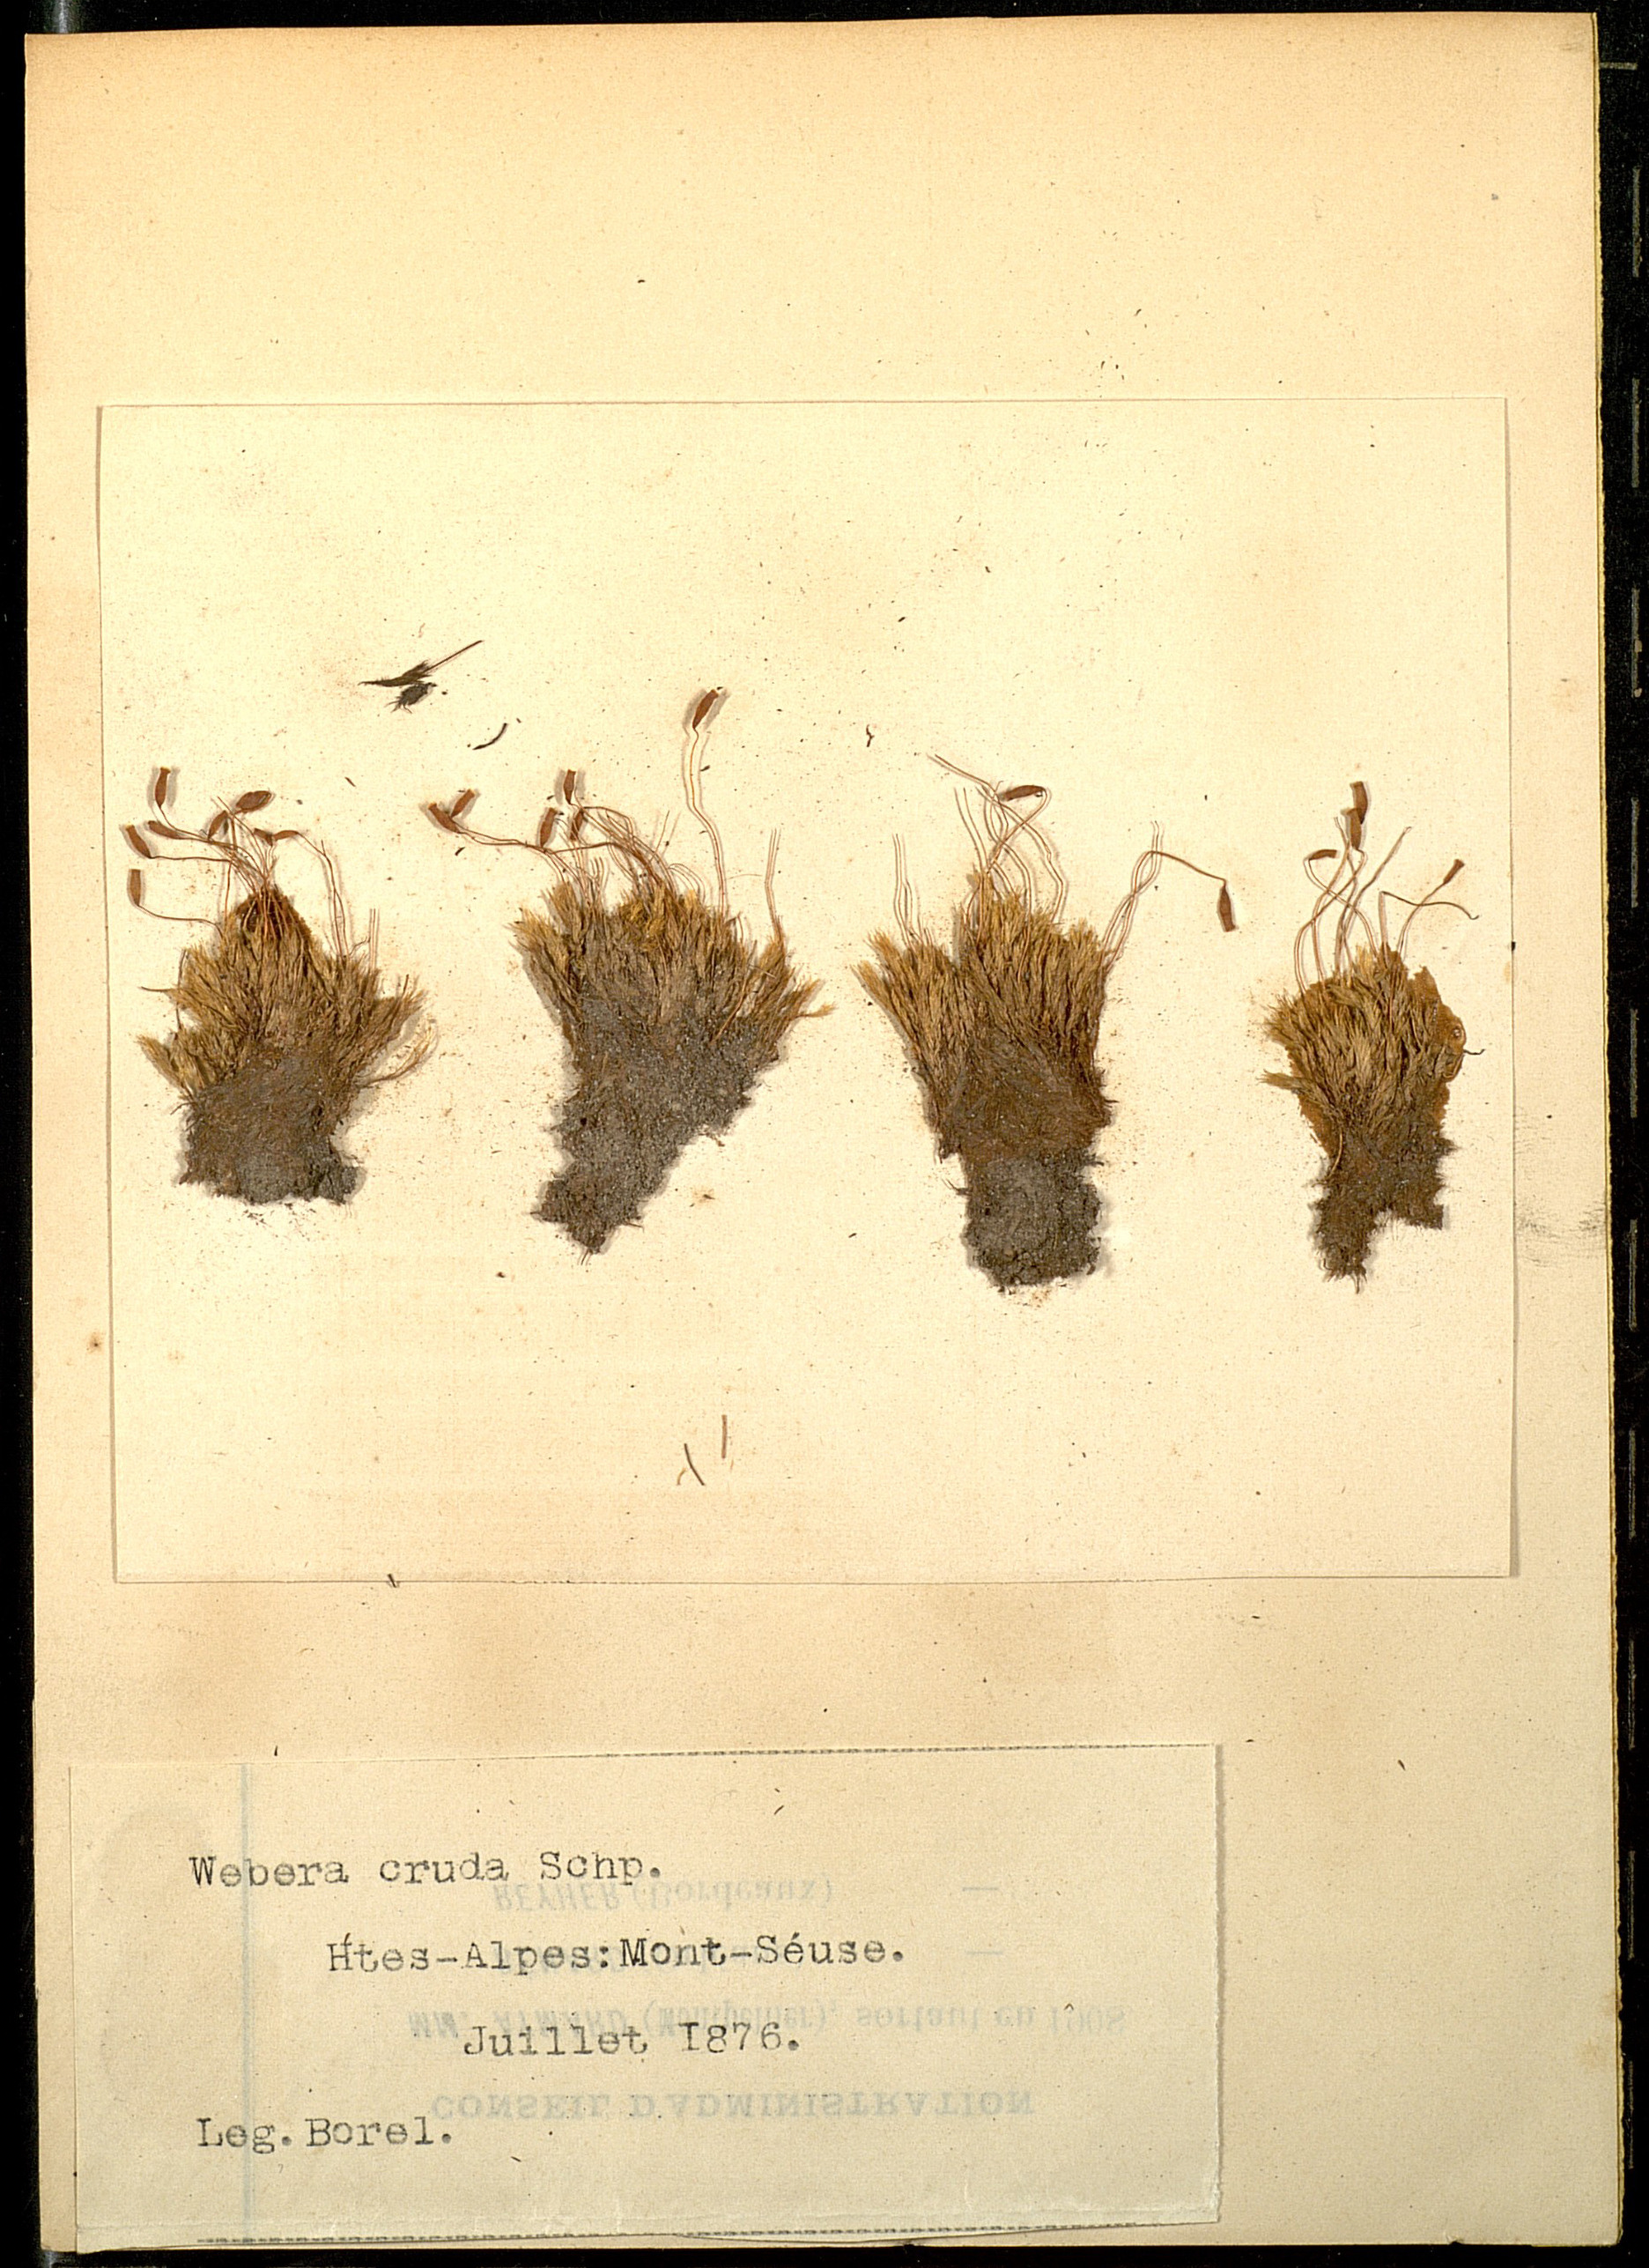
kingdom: Plantae
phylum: Bryophyta
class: Bryopsida
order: Bryales
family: Mniaceae
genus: Pohlia
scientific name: Pohlia cruda
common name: Opal nodding moss
